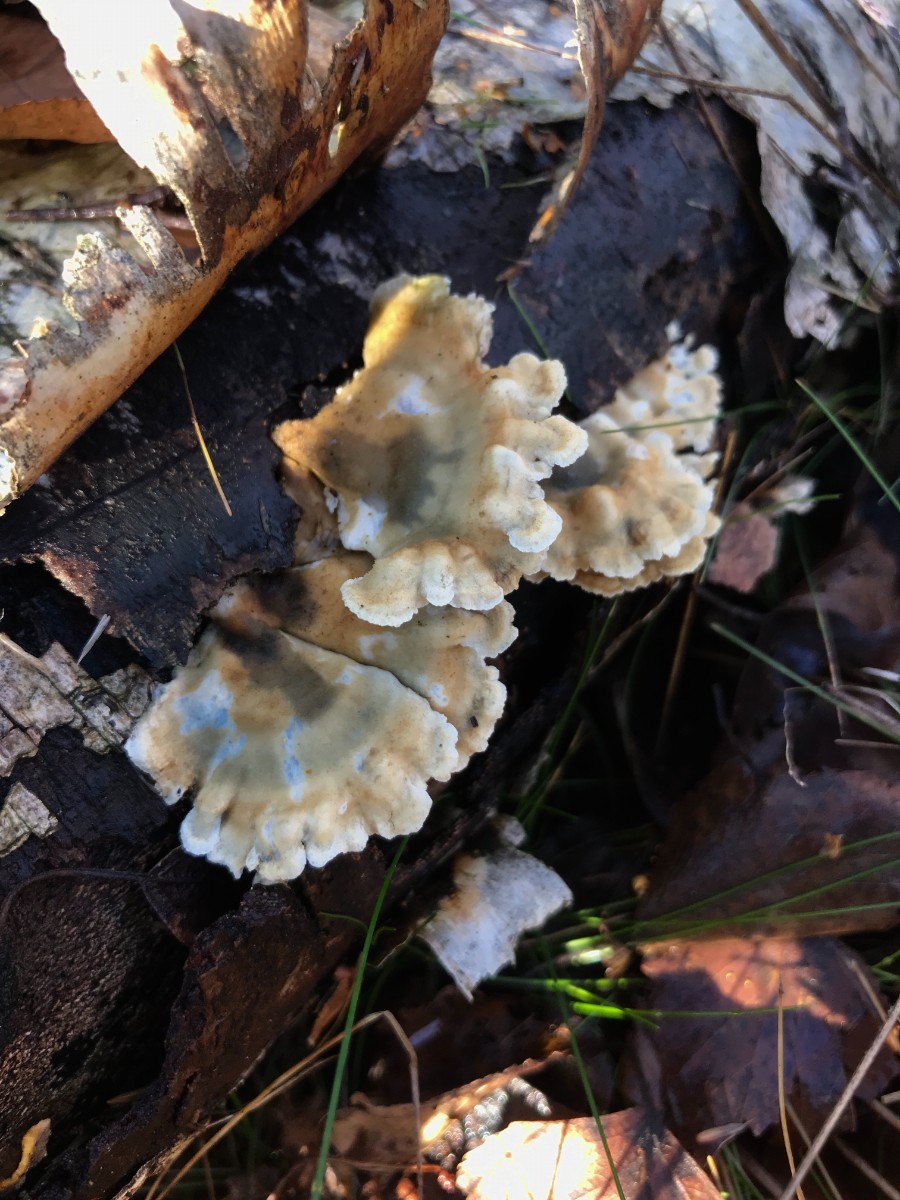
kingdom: Fungi
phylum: Basidiomycota
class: Agaricomycetes
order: Amylocorticiales
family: Amylocorticiaceae
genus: Plicaturopsis
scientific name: Plicaturopsis crispa
